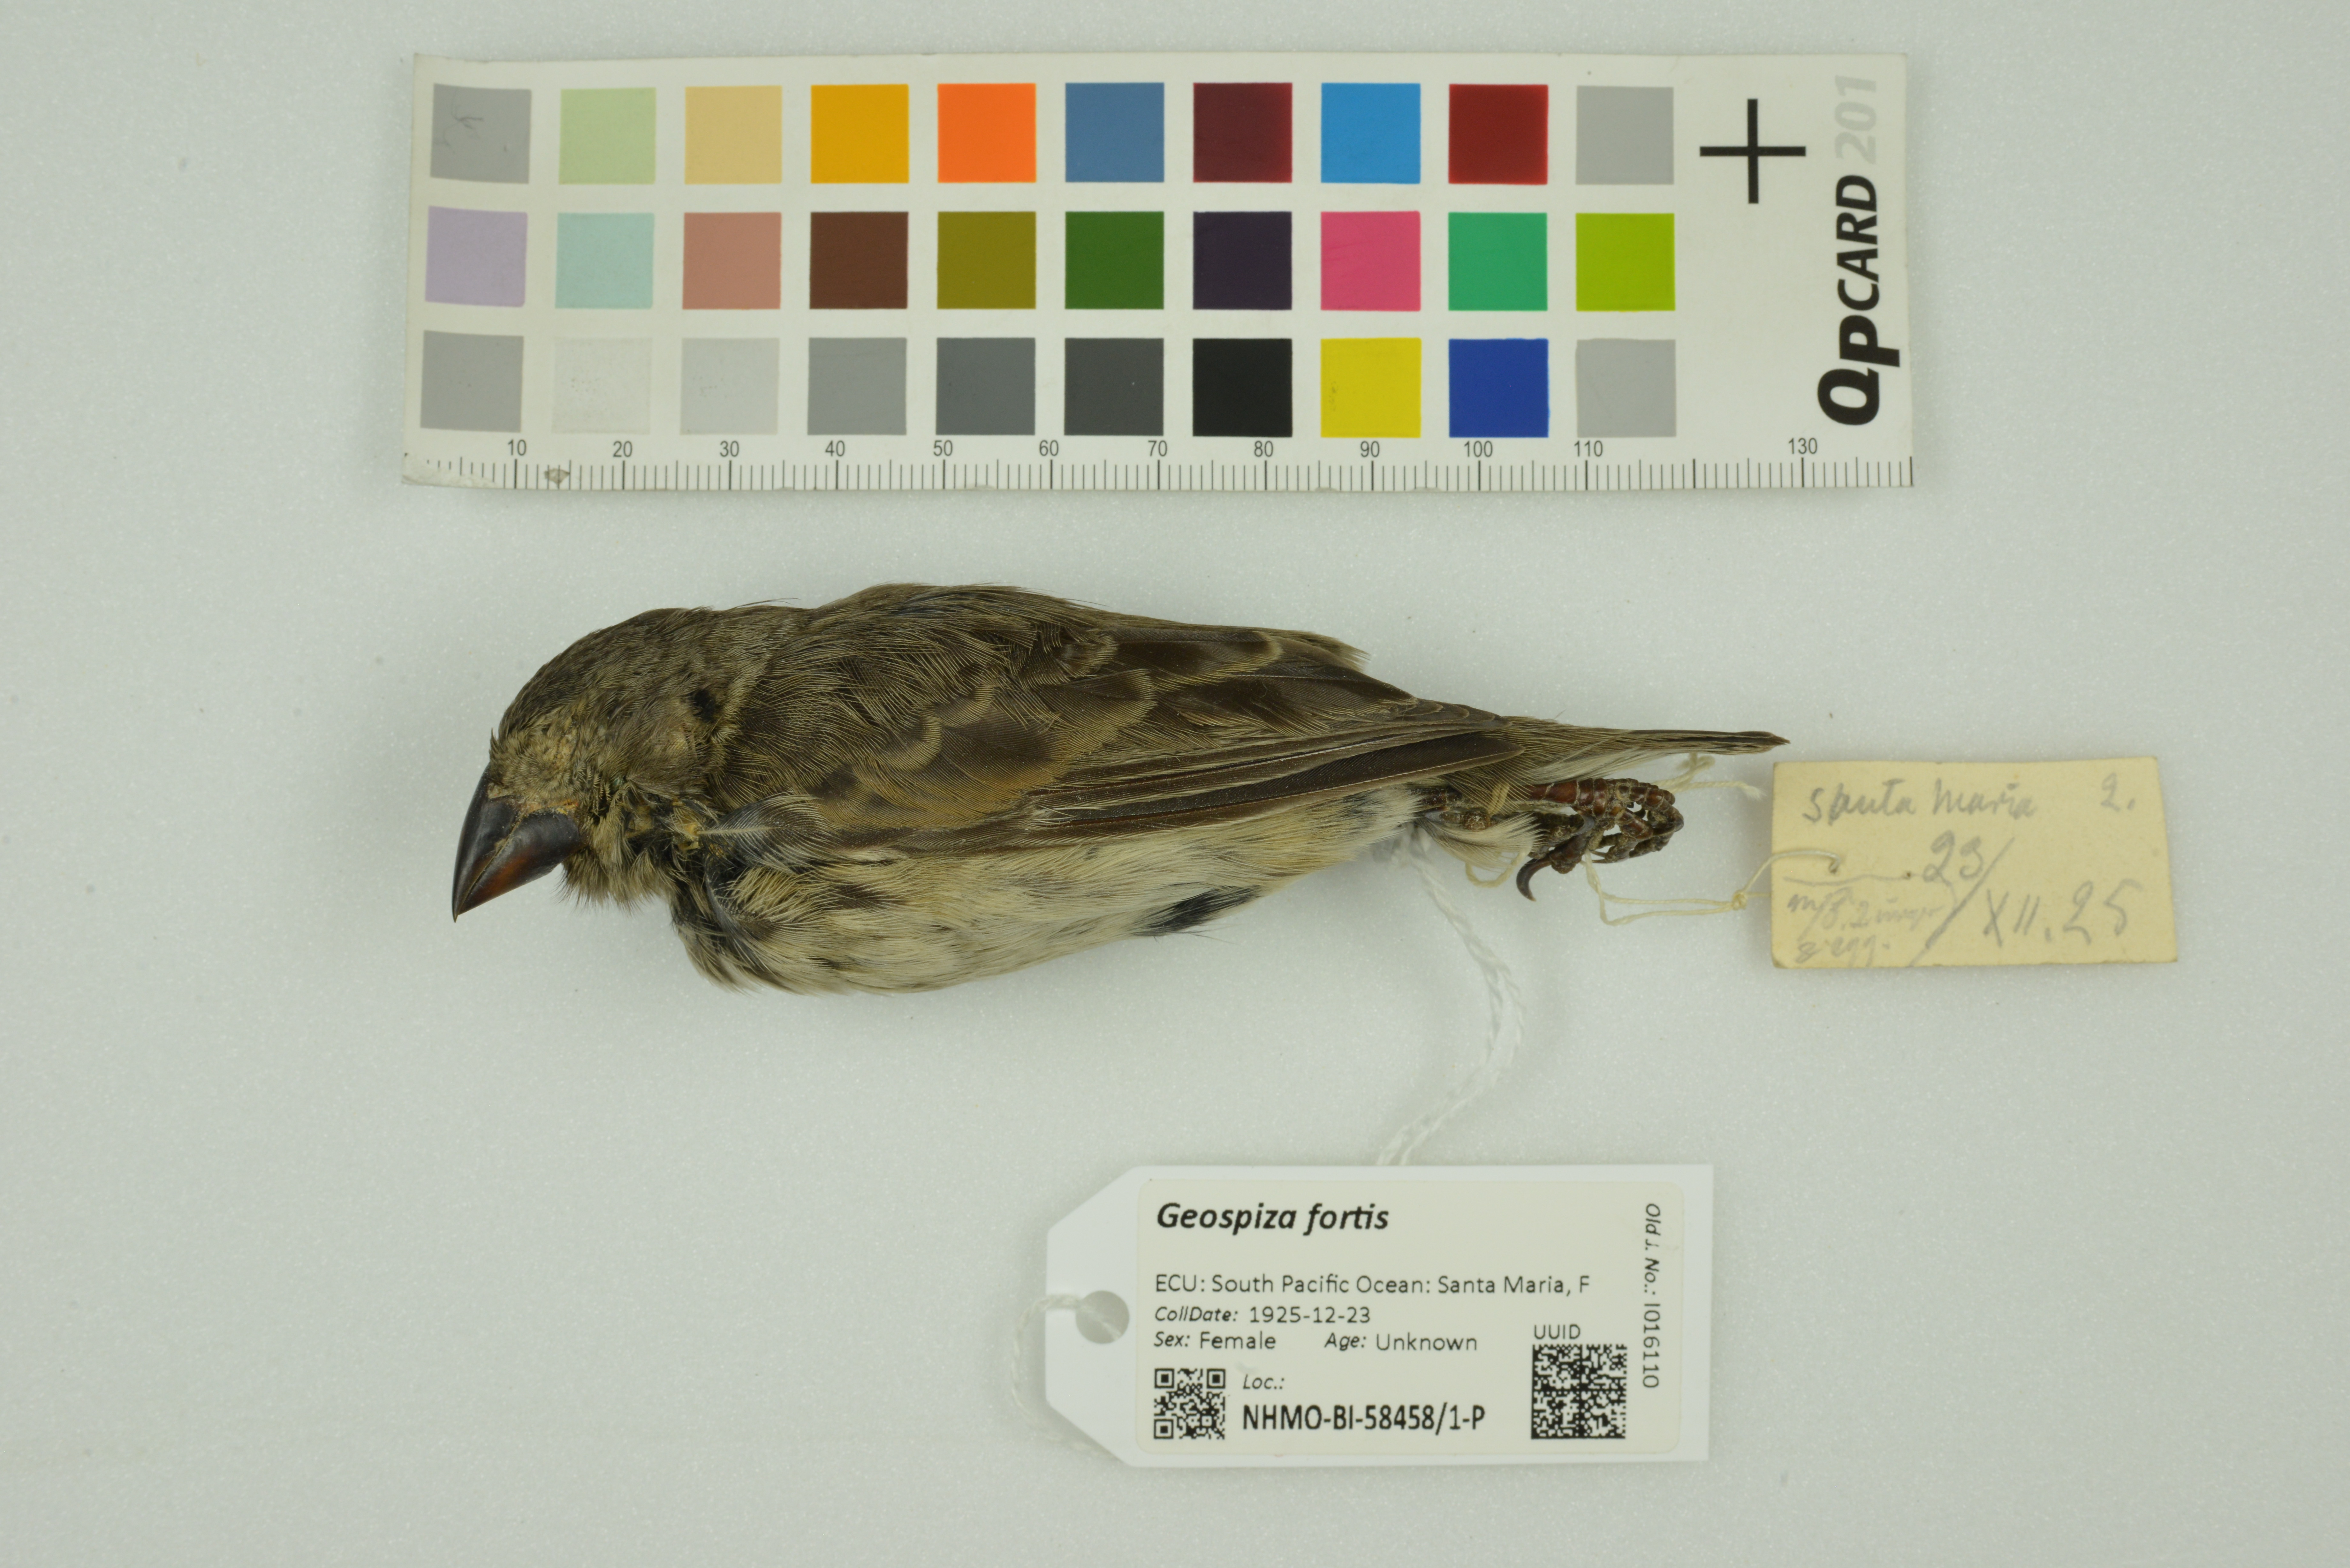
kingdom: Animalia
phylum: Chordata
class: Aves
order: Passeriformes
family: Thraupidae
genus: Geospiza
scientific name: Geospiza fortis
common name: Medium ground finch
